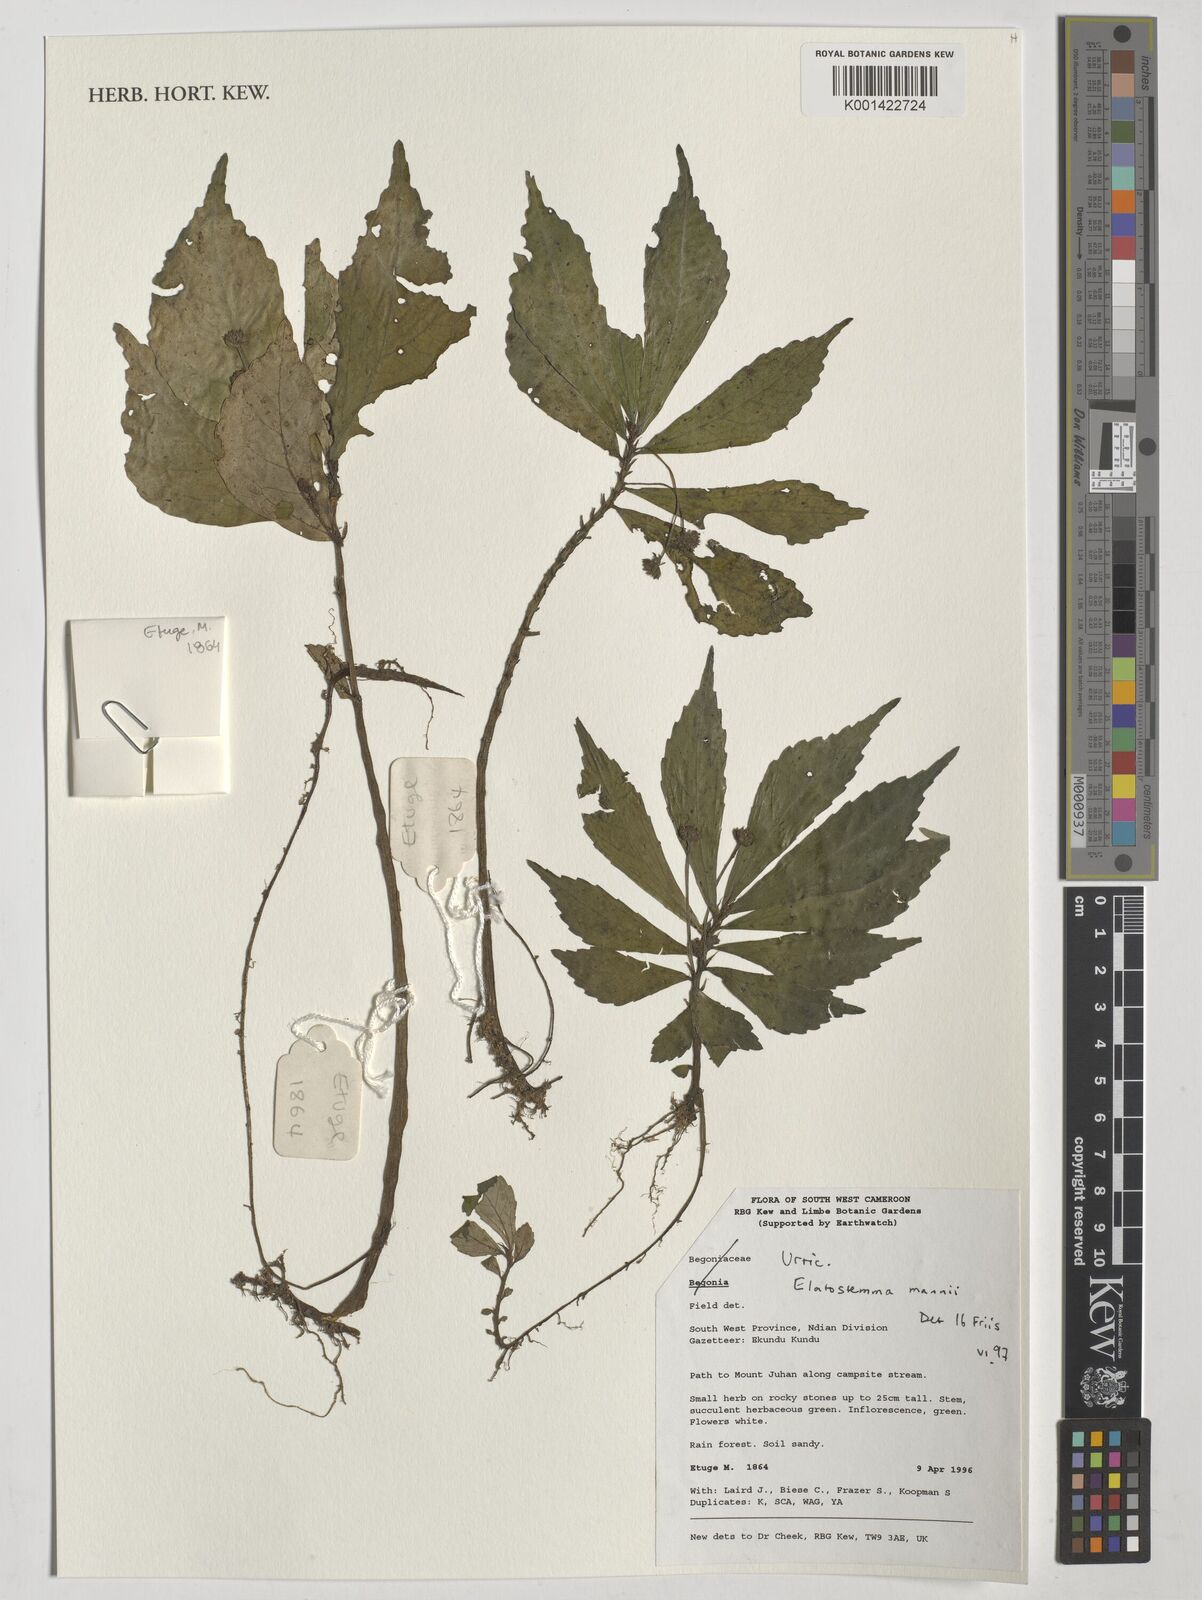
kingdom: Plantae
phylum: Tracheophyta
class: Magnoliopsida
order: Rosales
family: Urticaceae
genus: Elatostema
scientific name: Elatostema mannii
